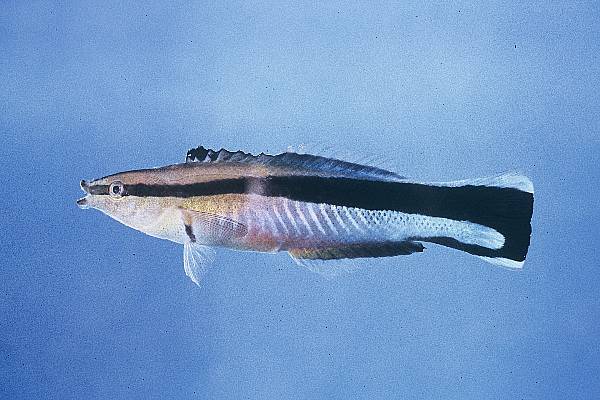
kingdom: Animalia
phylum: Chordata
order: Perciformes
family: Labridae
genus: Labroides
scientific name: Labroides dimidiatus
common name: Blue diesel wrasse
